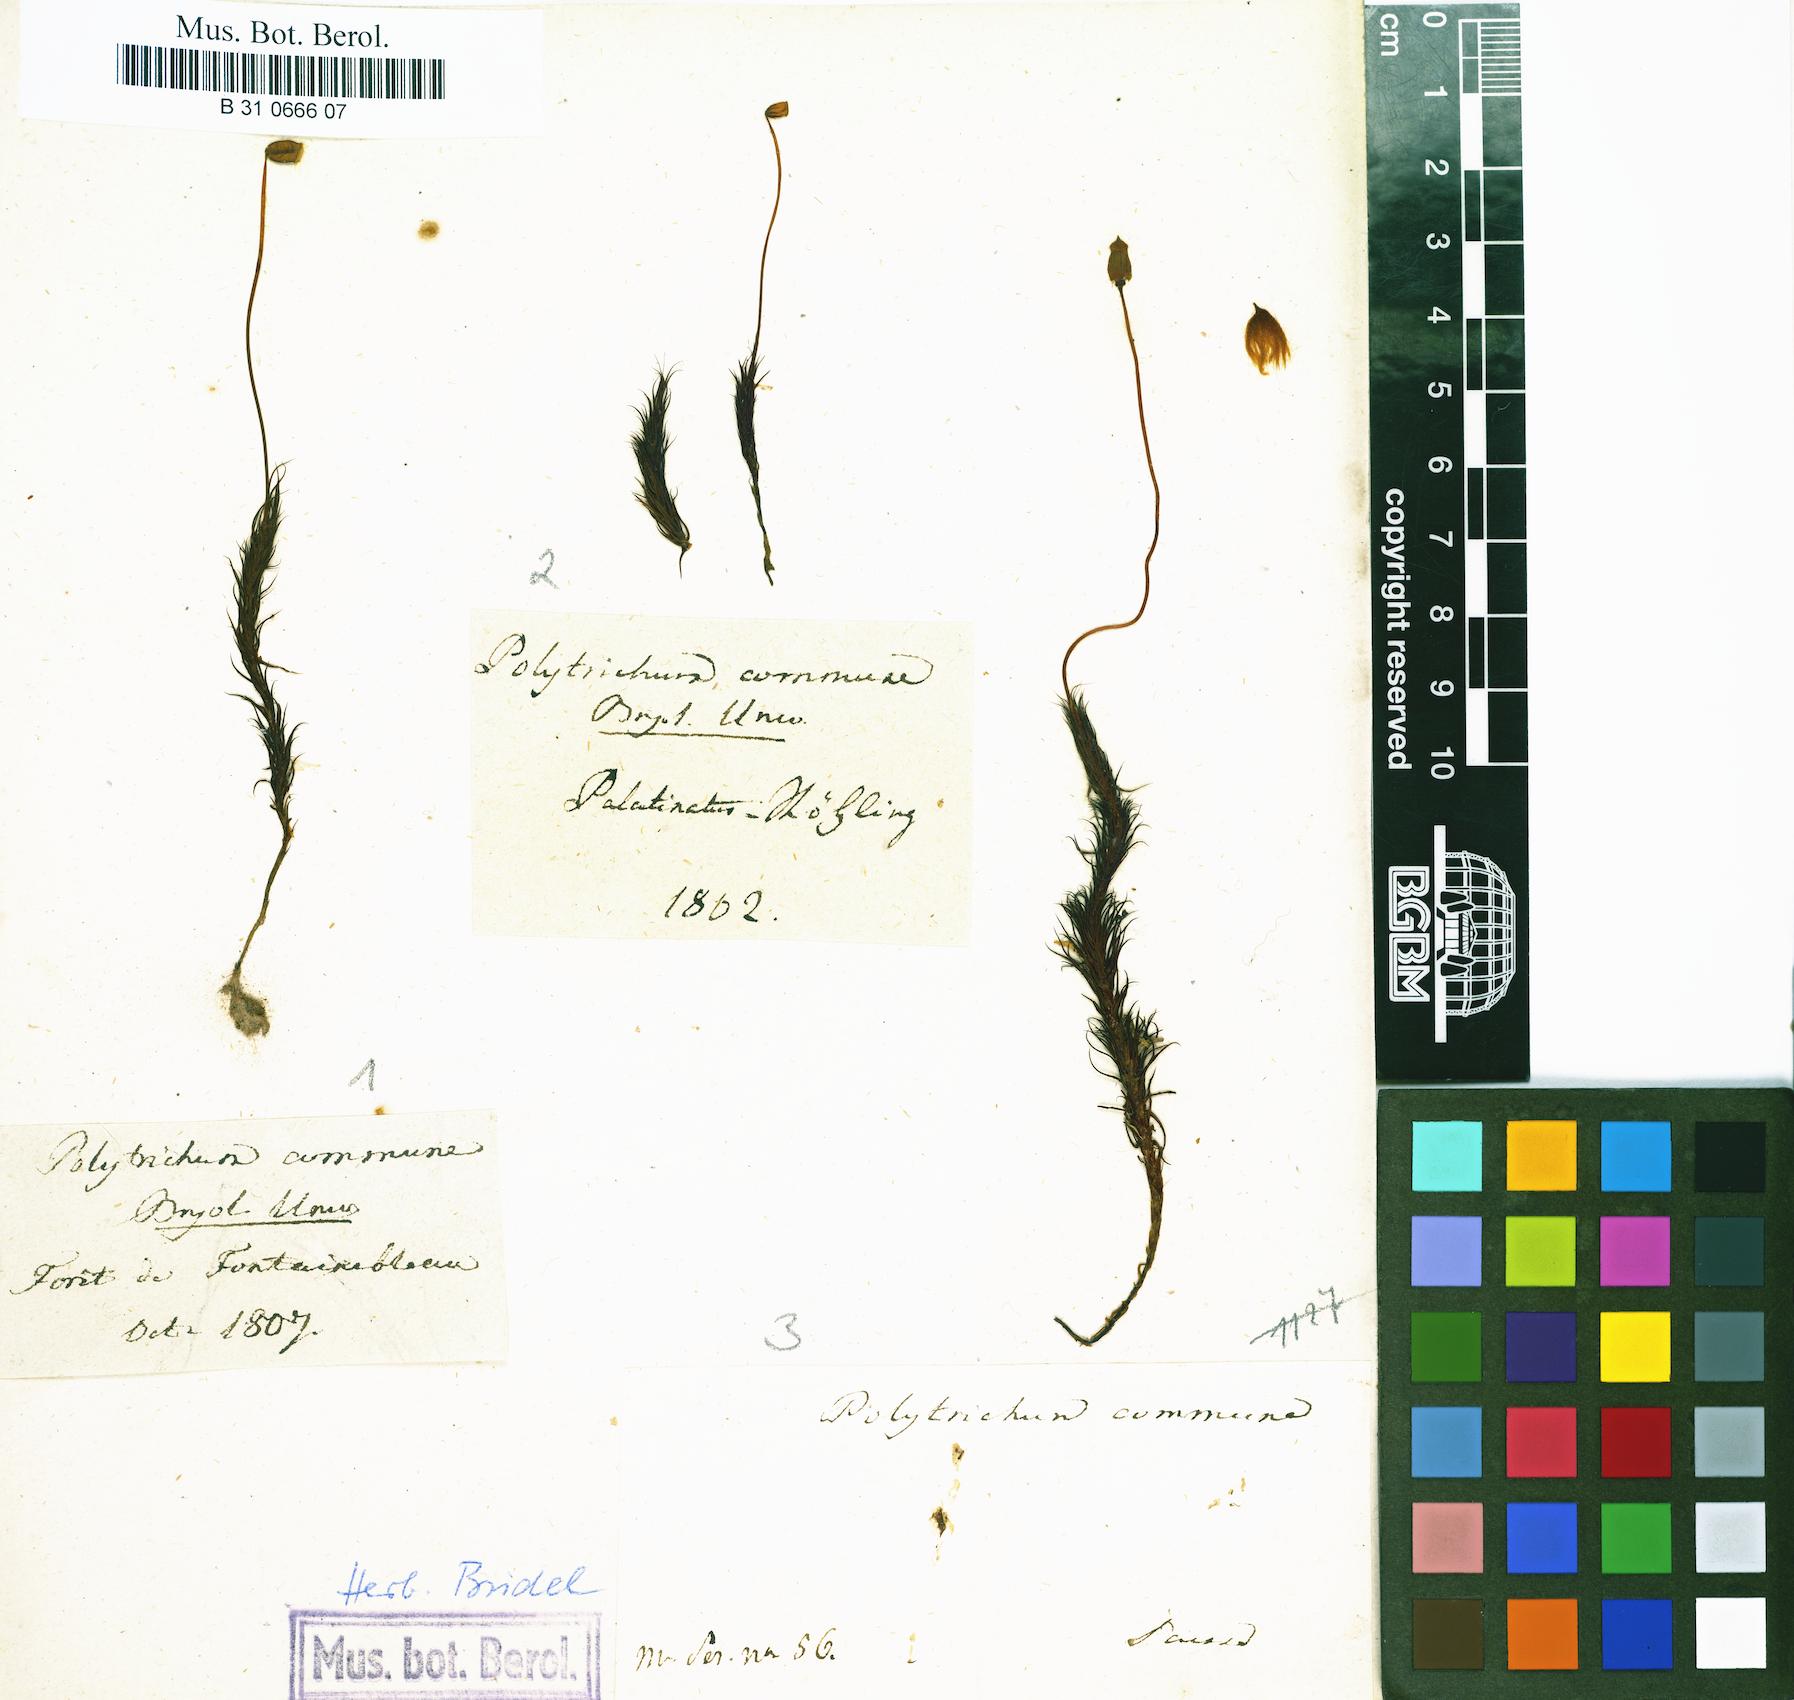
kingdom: Plantae
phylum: Bryophyta
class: Polytrichopsida
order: Polytrichales
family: Polytrichaceae
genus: Polytrichum
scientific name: Polytrichum commune
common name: Common haircap
